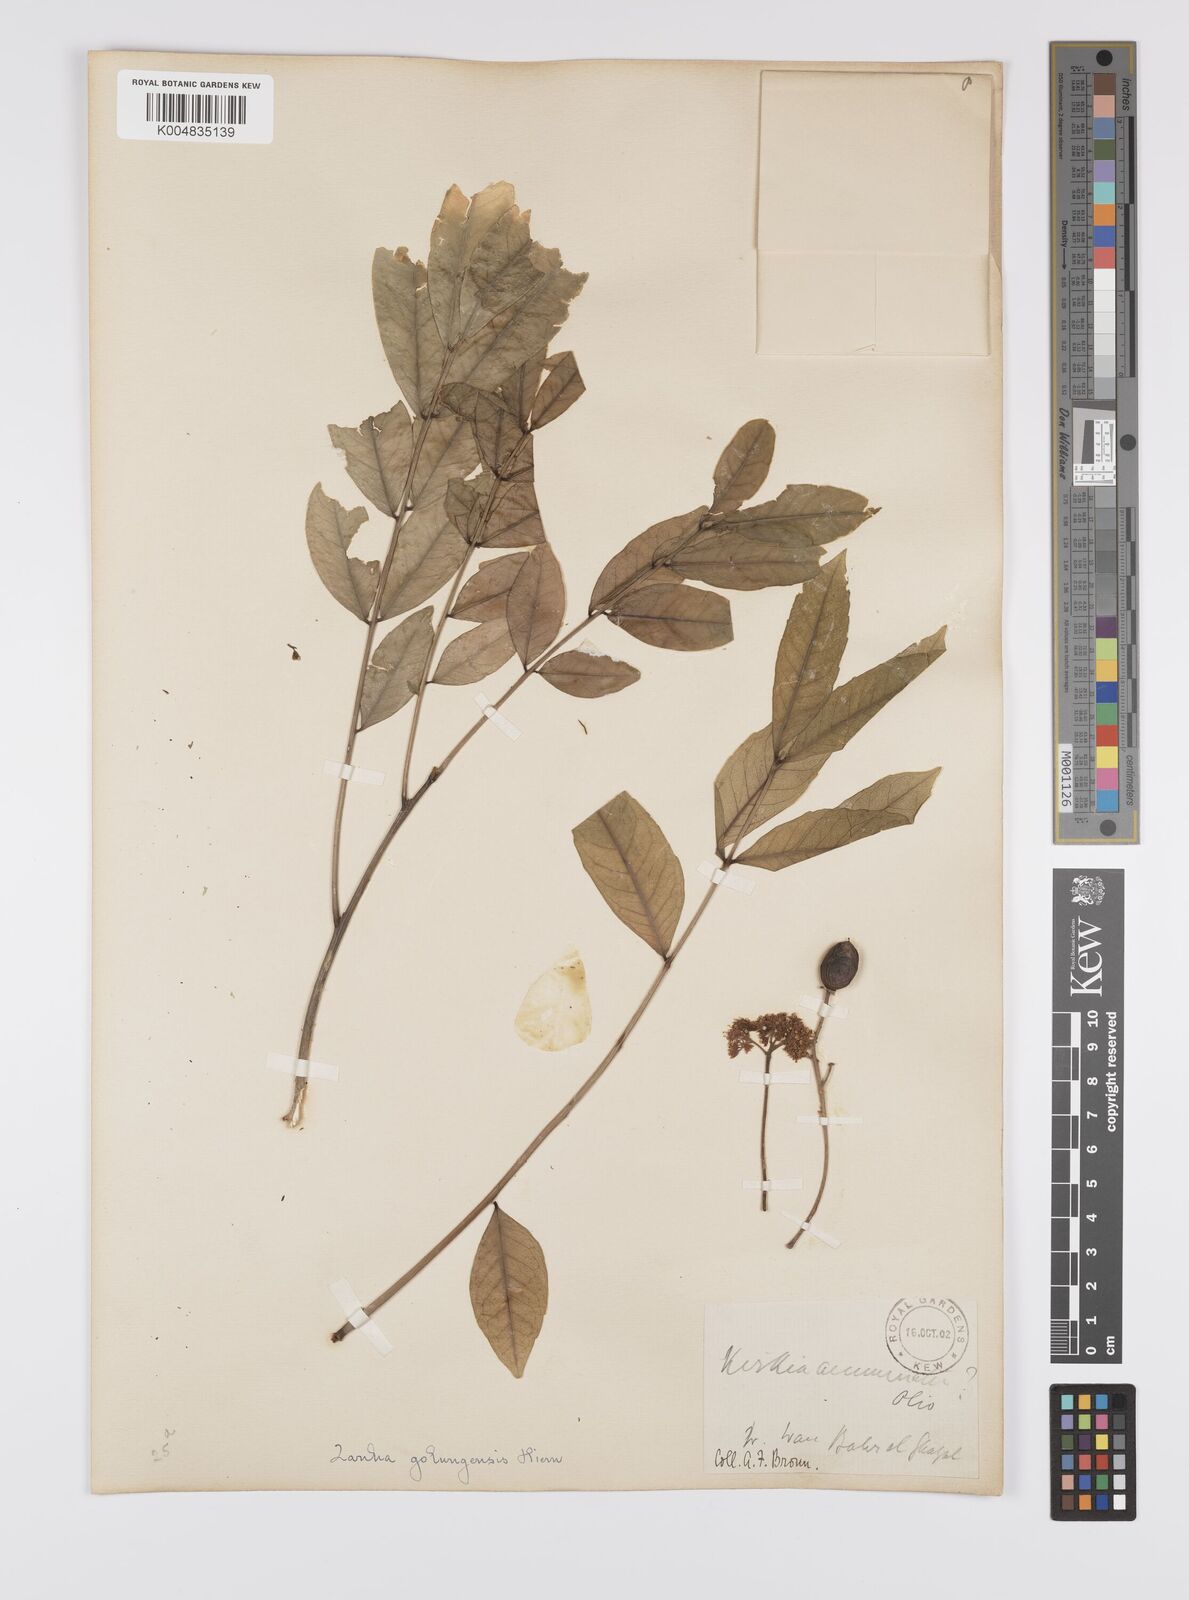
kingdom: Plantae
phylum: Tracheophyta
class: Magnoliopsida
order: Sapindales
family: Sapindaceae
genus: Zanha
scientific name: Zanha golungensis
